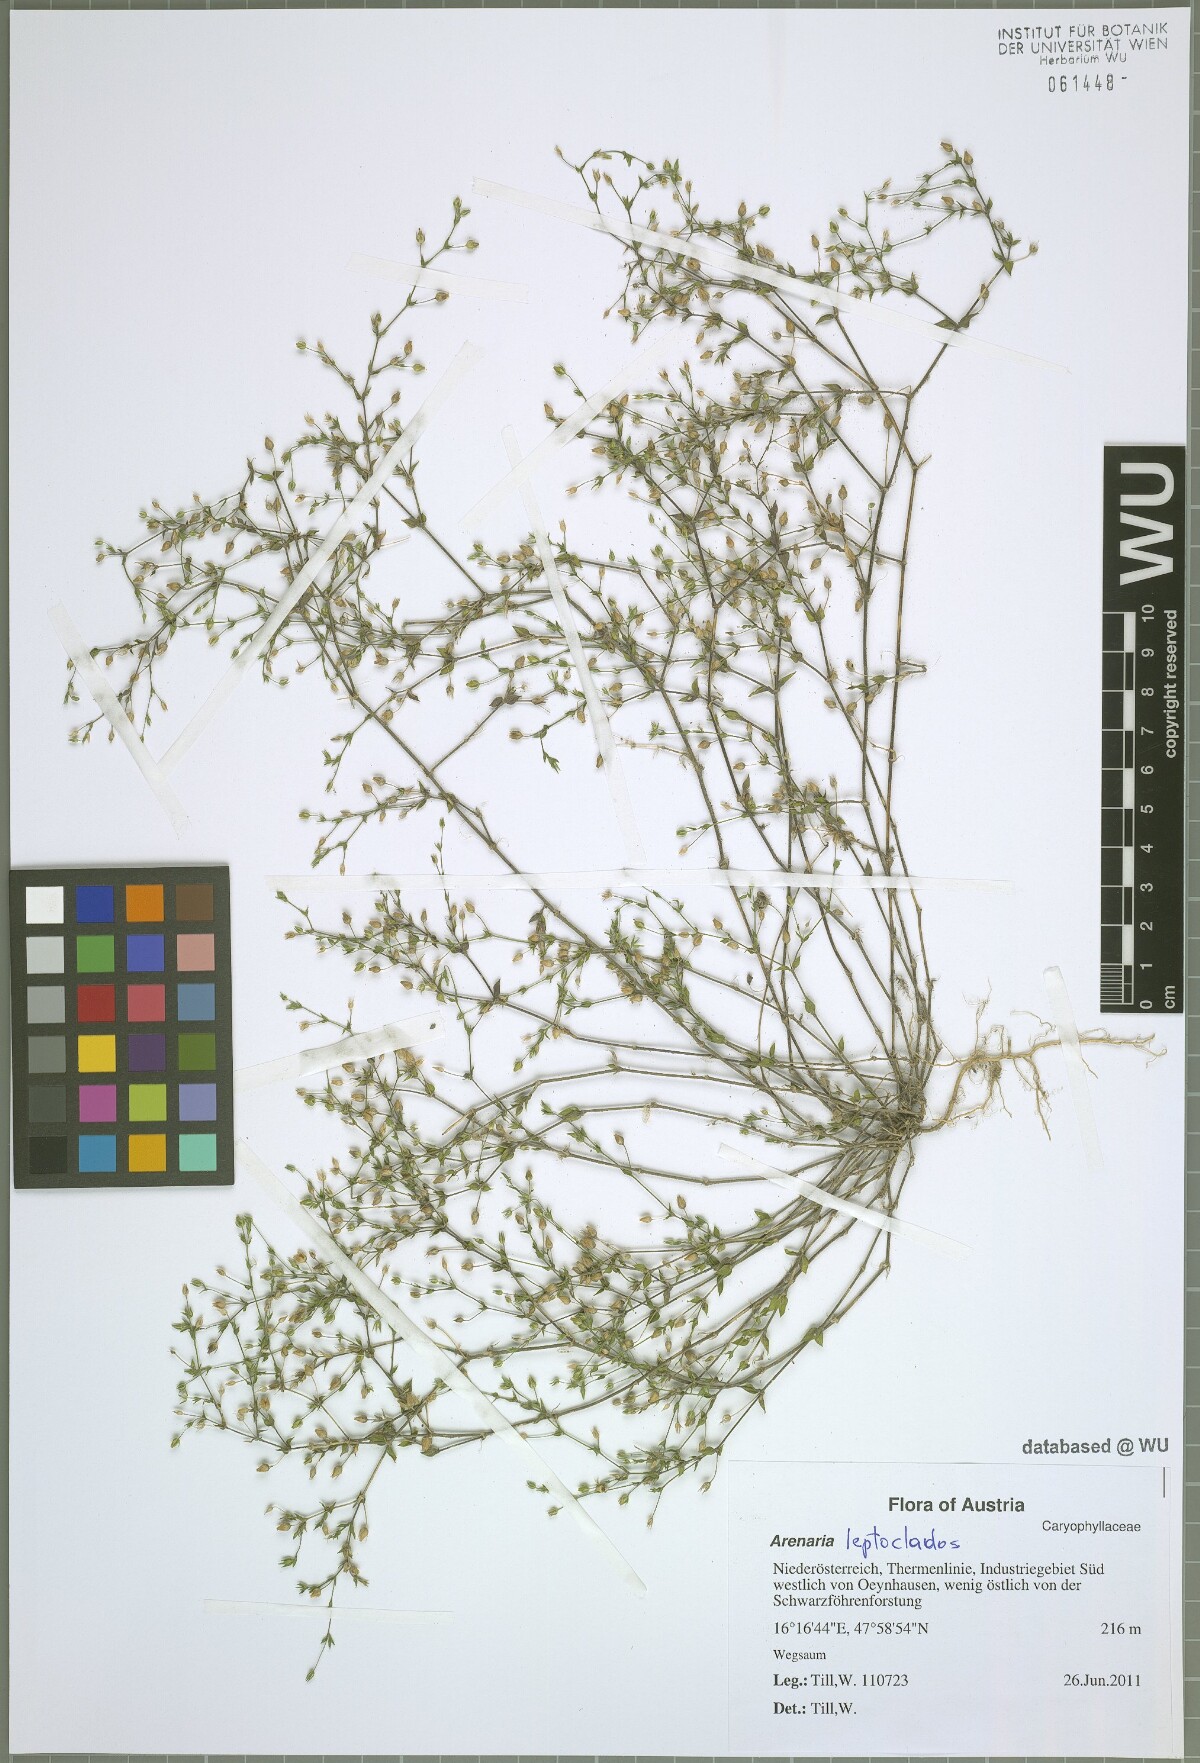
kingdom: Plantae
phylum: Tracheophyta
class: Magnoliopsida
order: Caryophyllales
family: Caryophyllaceae
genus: Arenaria
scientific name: Arenaria leptoclados
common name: Thyme-leaved sandwort
